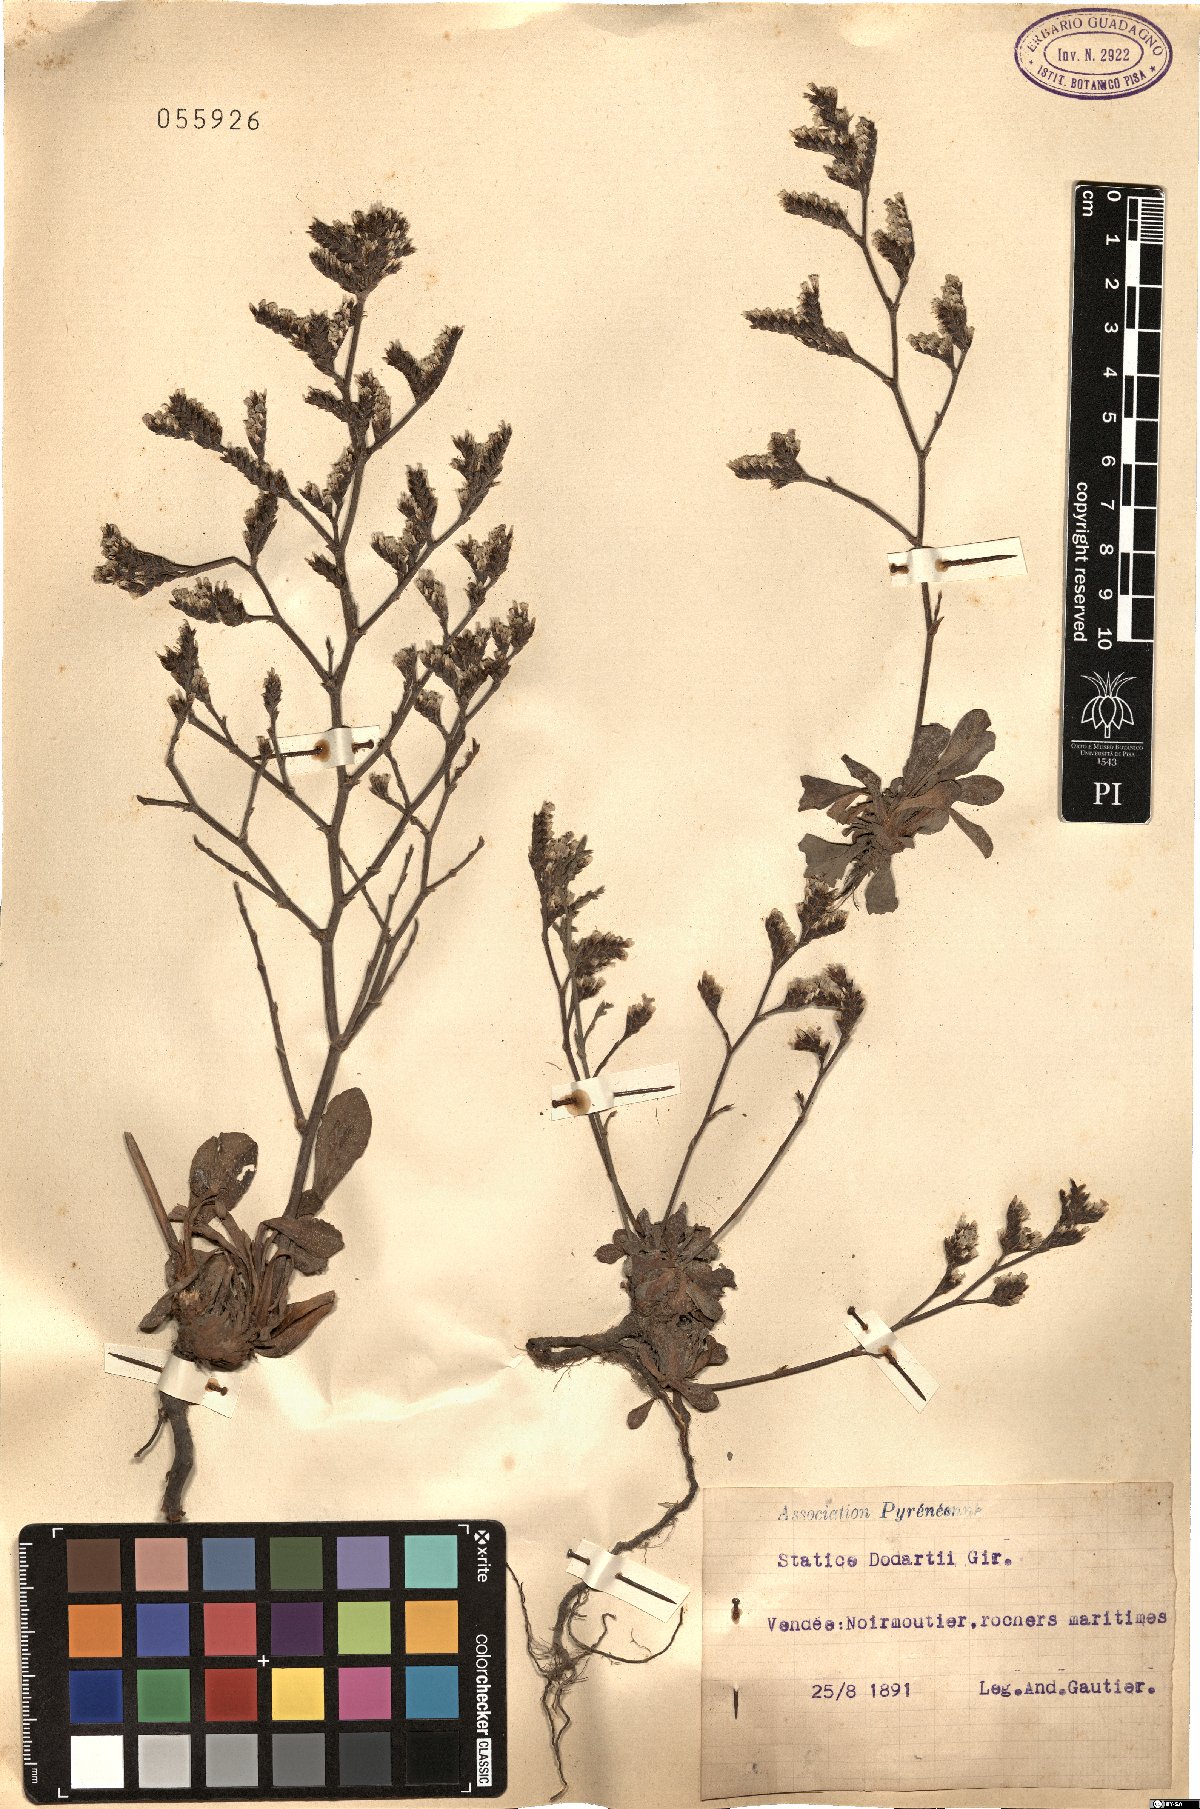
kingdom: Plantae
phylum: Tracheophyta
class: Magnoliopsida
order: Caryophyllales
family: Plumbaginaceae
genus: Limonium
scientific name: Limonium dodartii
